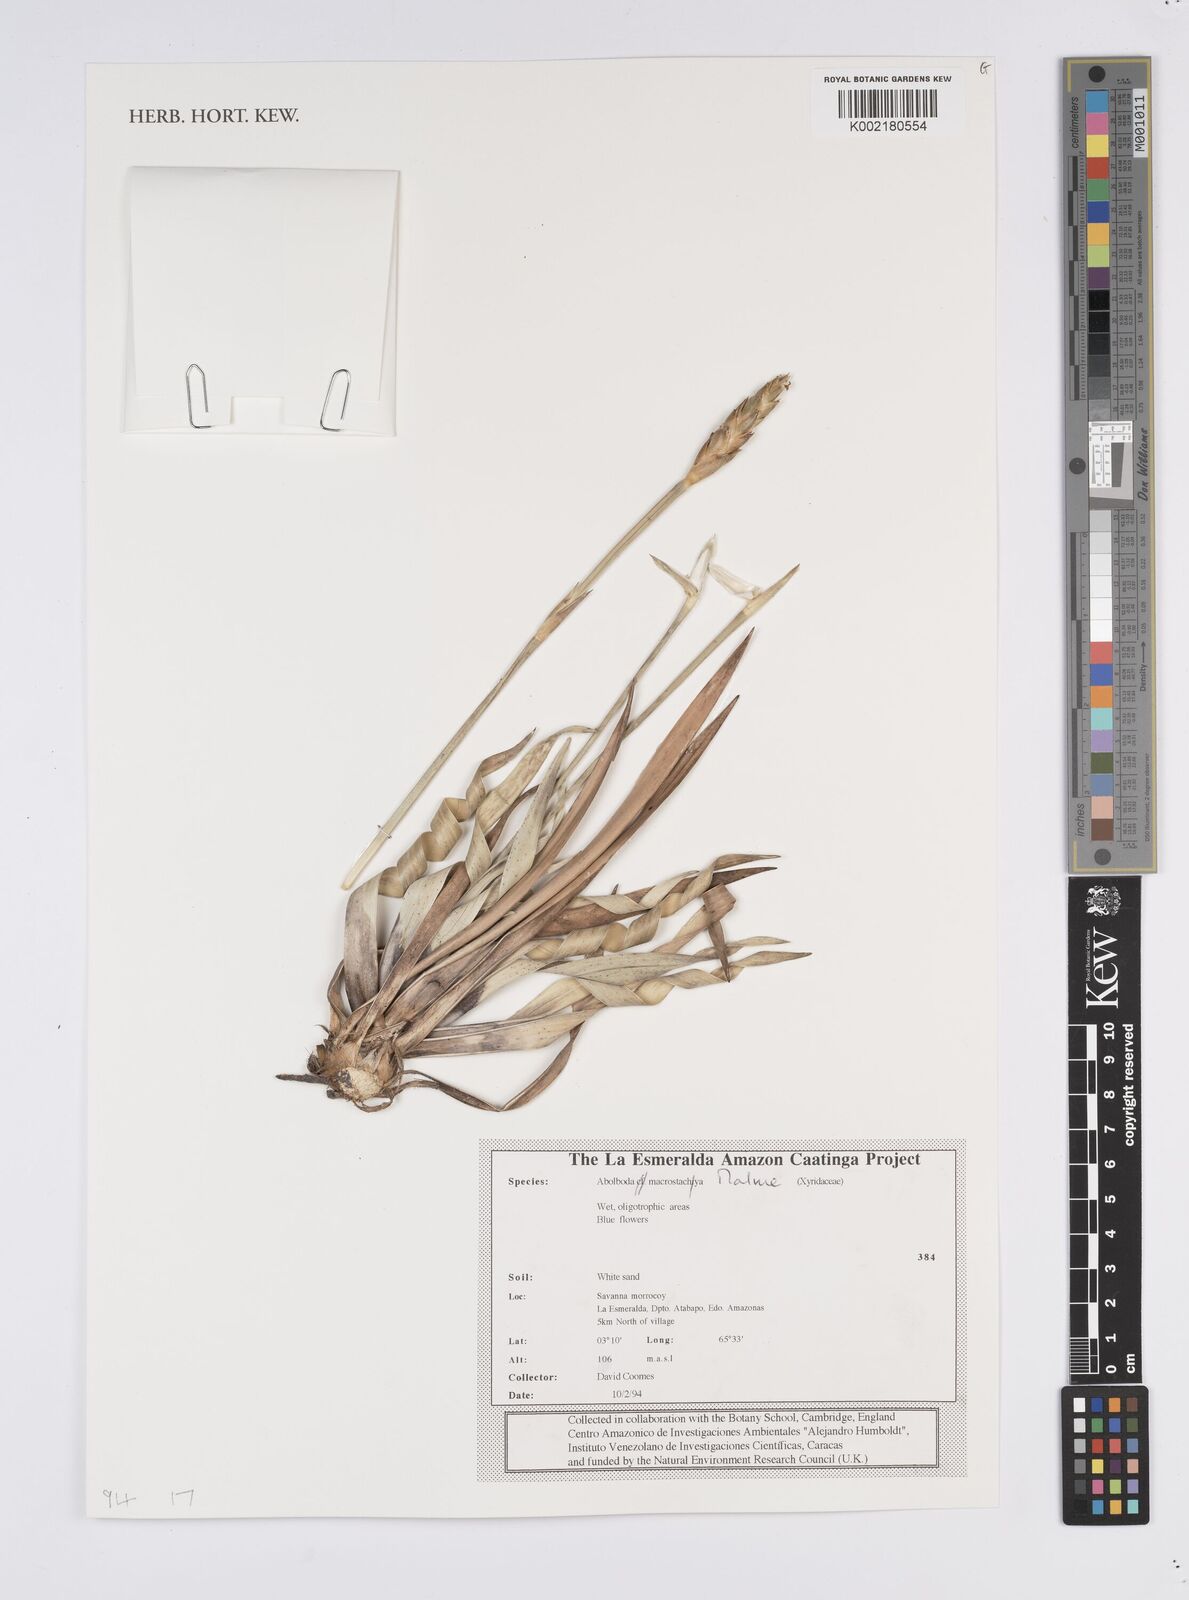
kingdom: Plantae
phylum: Tracheophyta
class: Liliopsida
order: Poales
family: Xyridaceae
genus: Abolboda
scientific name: Abolboda macrostachya
